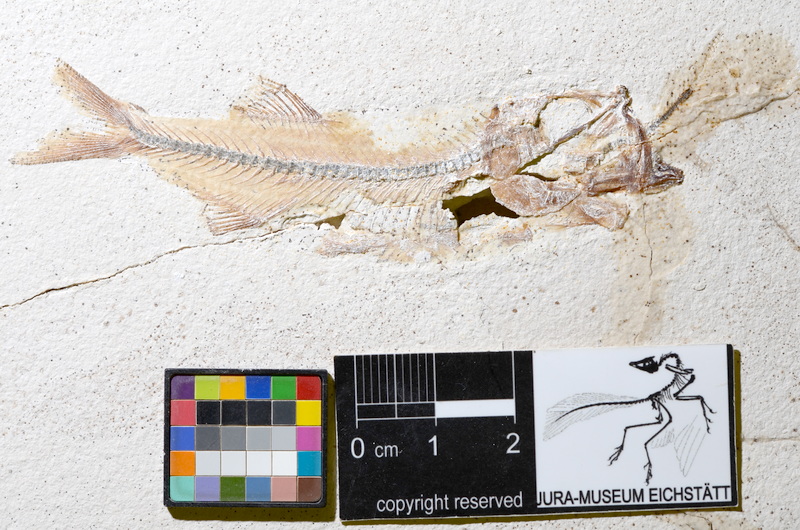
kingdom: Animalia
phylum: Chordata
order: Salmoniformes
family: Orthogonikleithridae
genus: Orthogonikleithrus
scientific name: Orthogonikleithrus hoelli
